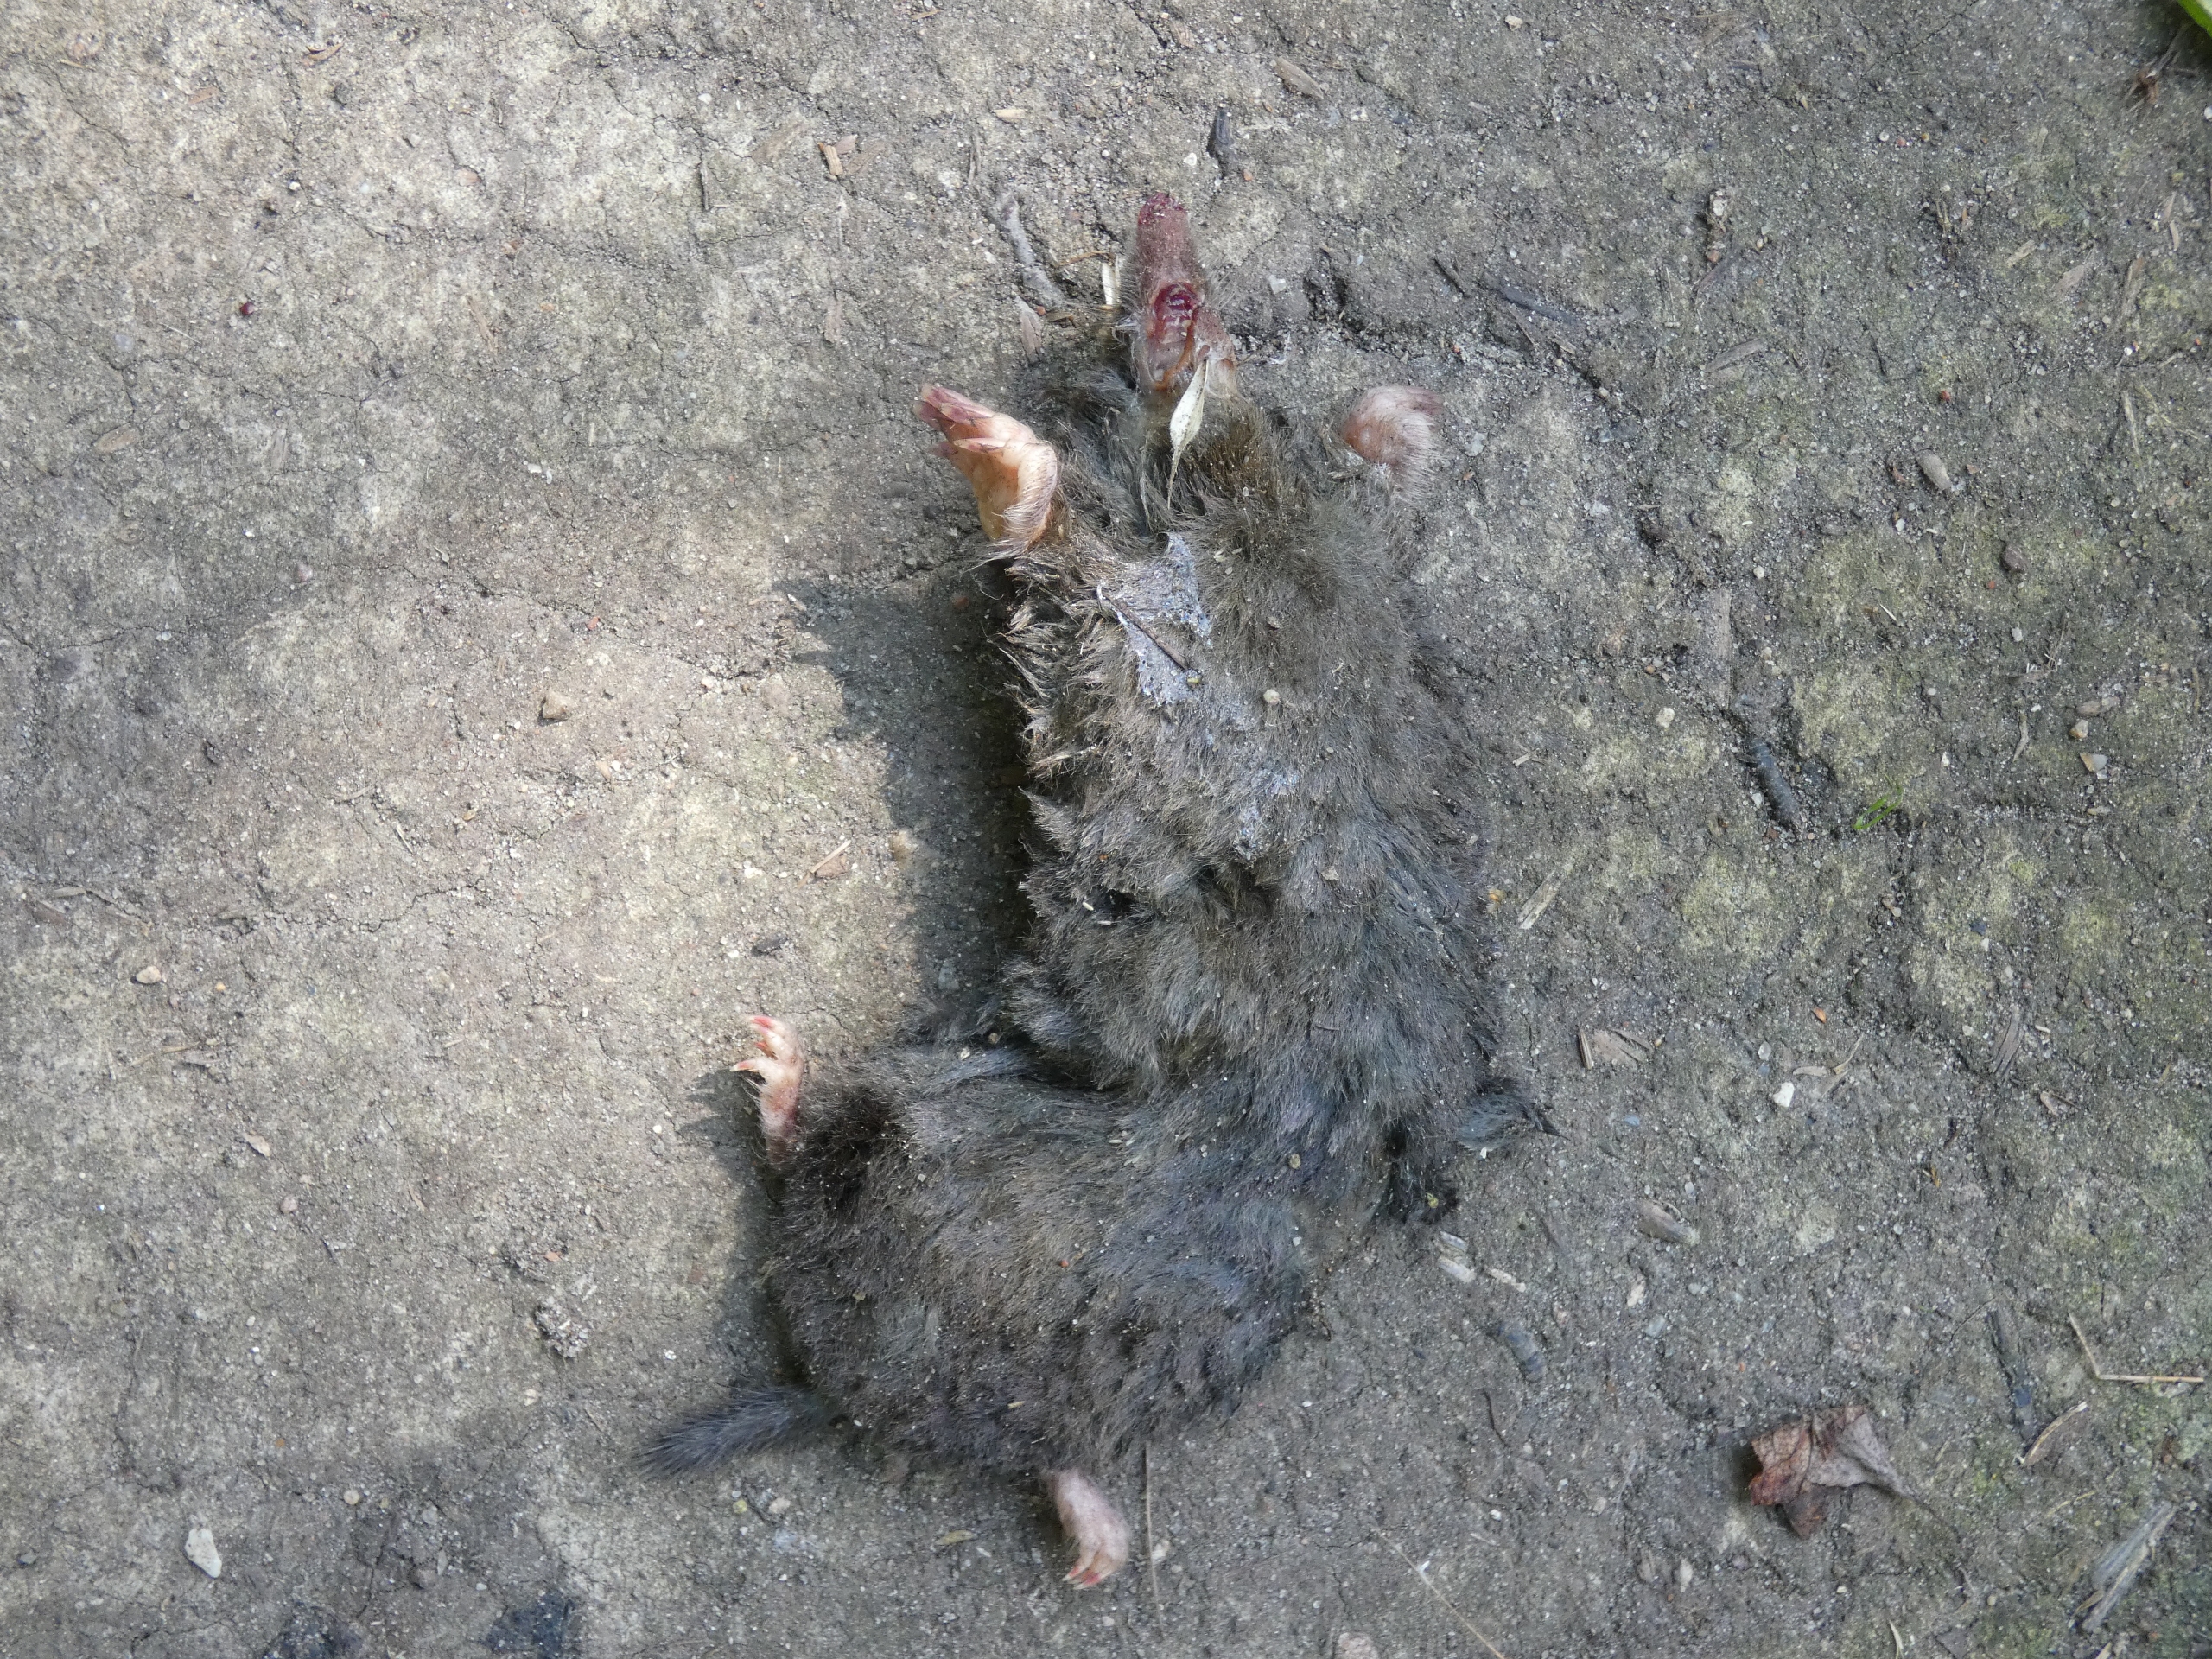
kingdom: Animalia
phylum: Chordata
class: Mammalia
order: Soricomorpha
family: Talpidae
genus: Talpa
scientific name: Talpa europaea
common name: Muldvarp
